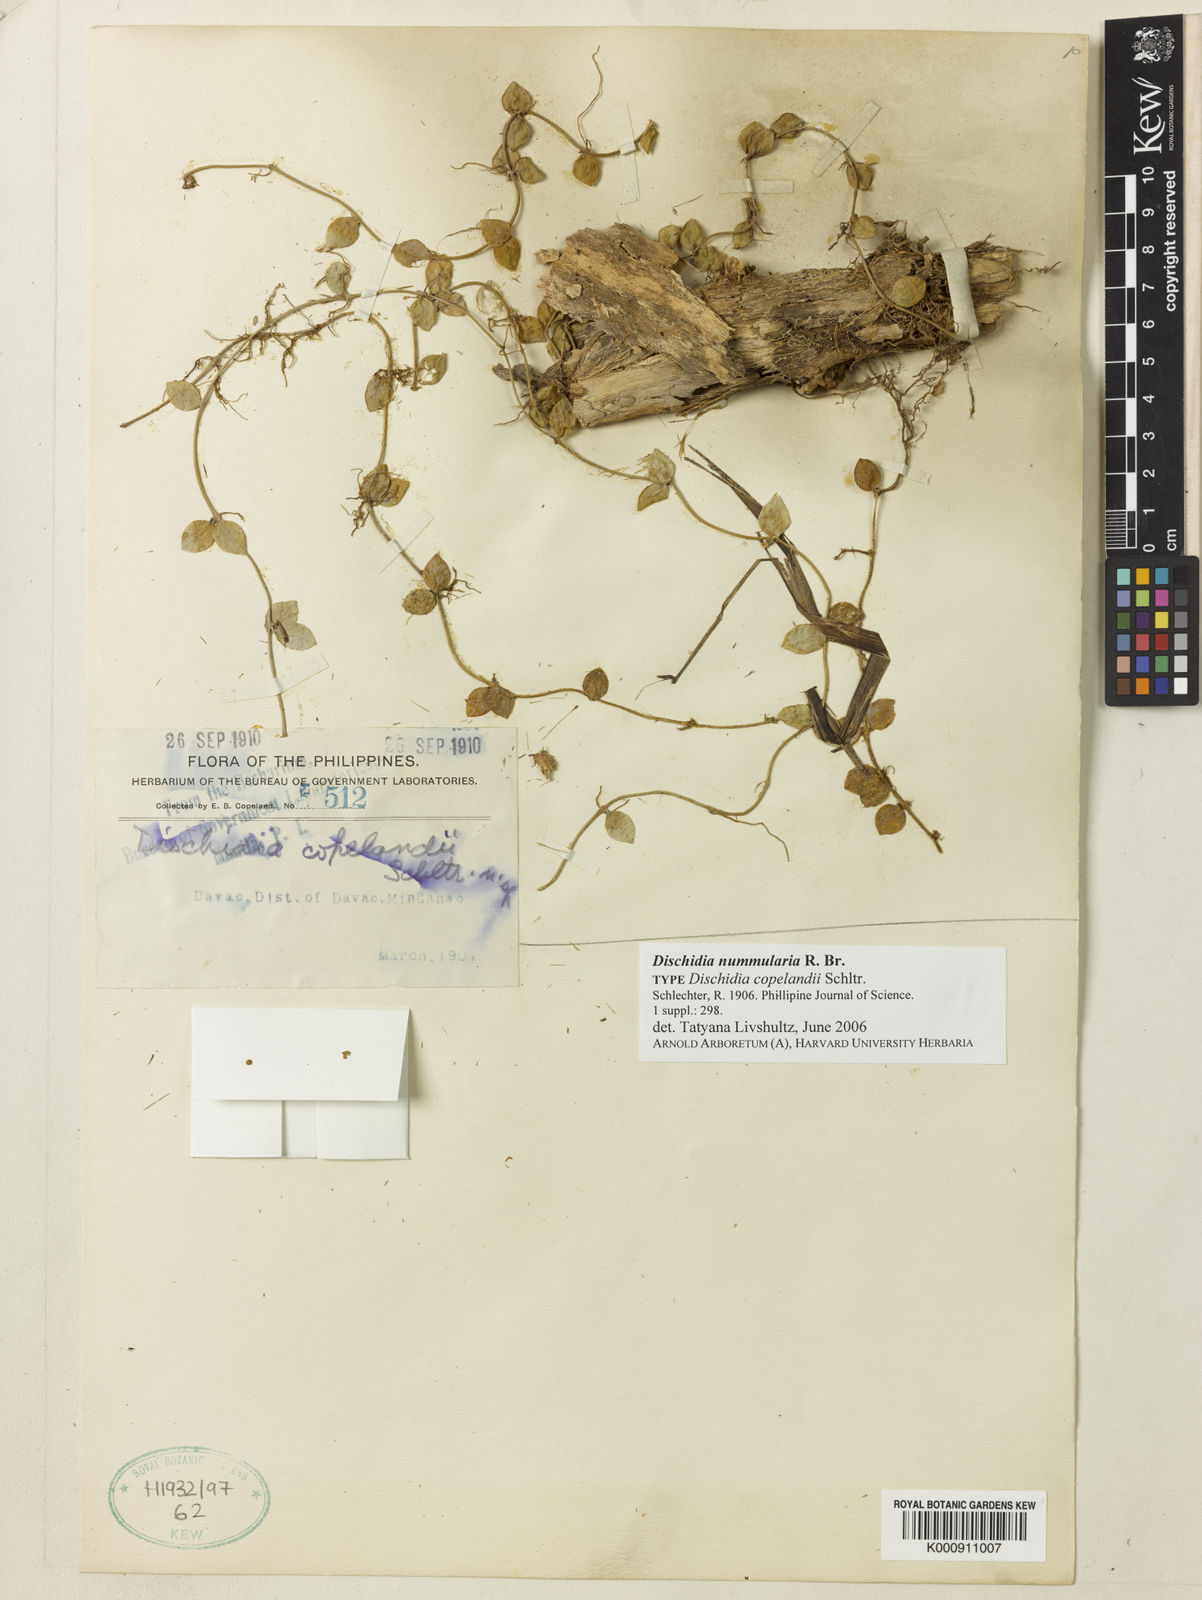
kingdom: Plantae
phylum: Tracheophyta
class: Magnoliopsida
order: Gentianales
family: Apocynaceae
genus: Dischidia
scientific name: Dischidia nummularia
